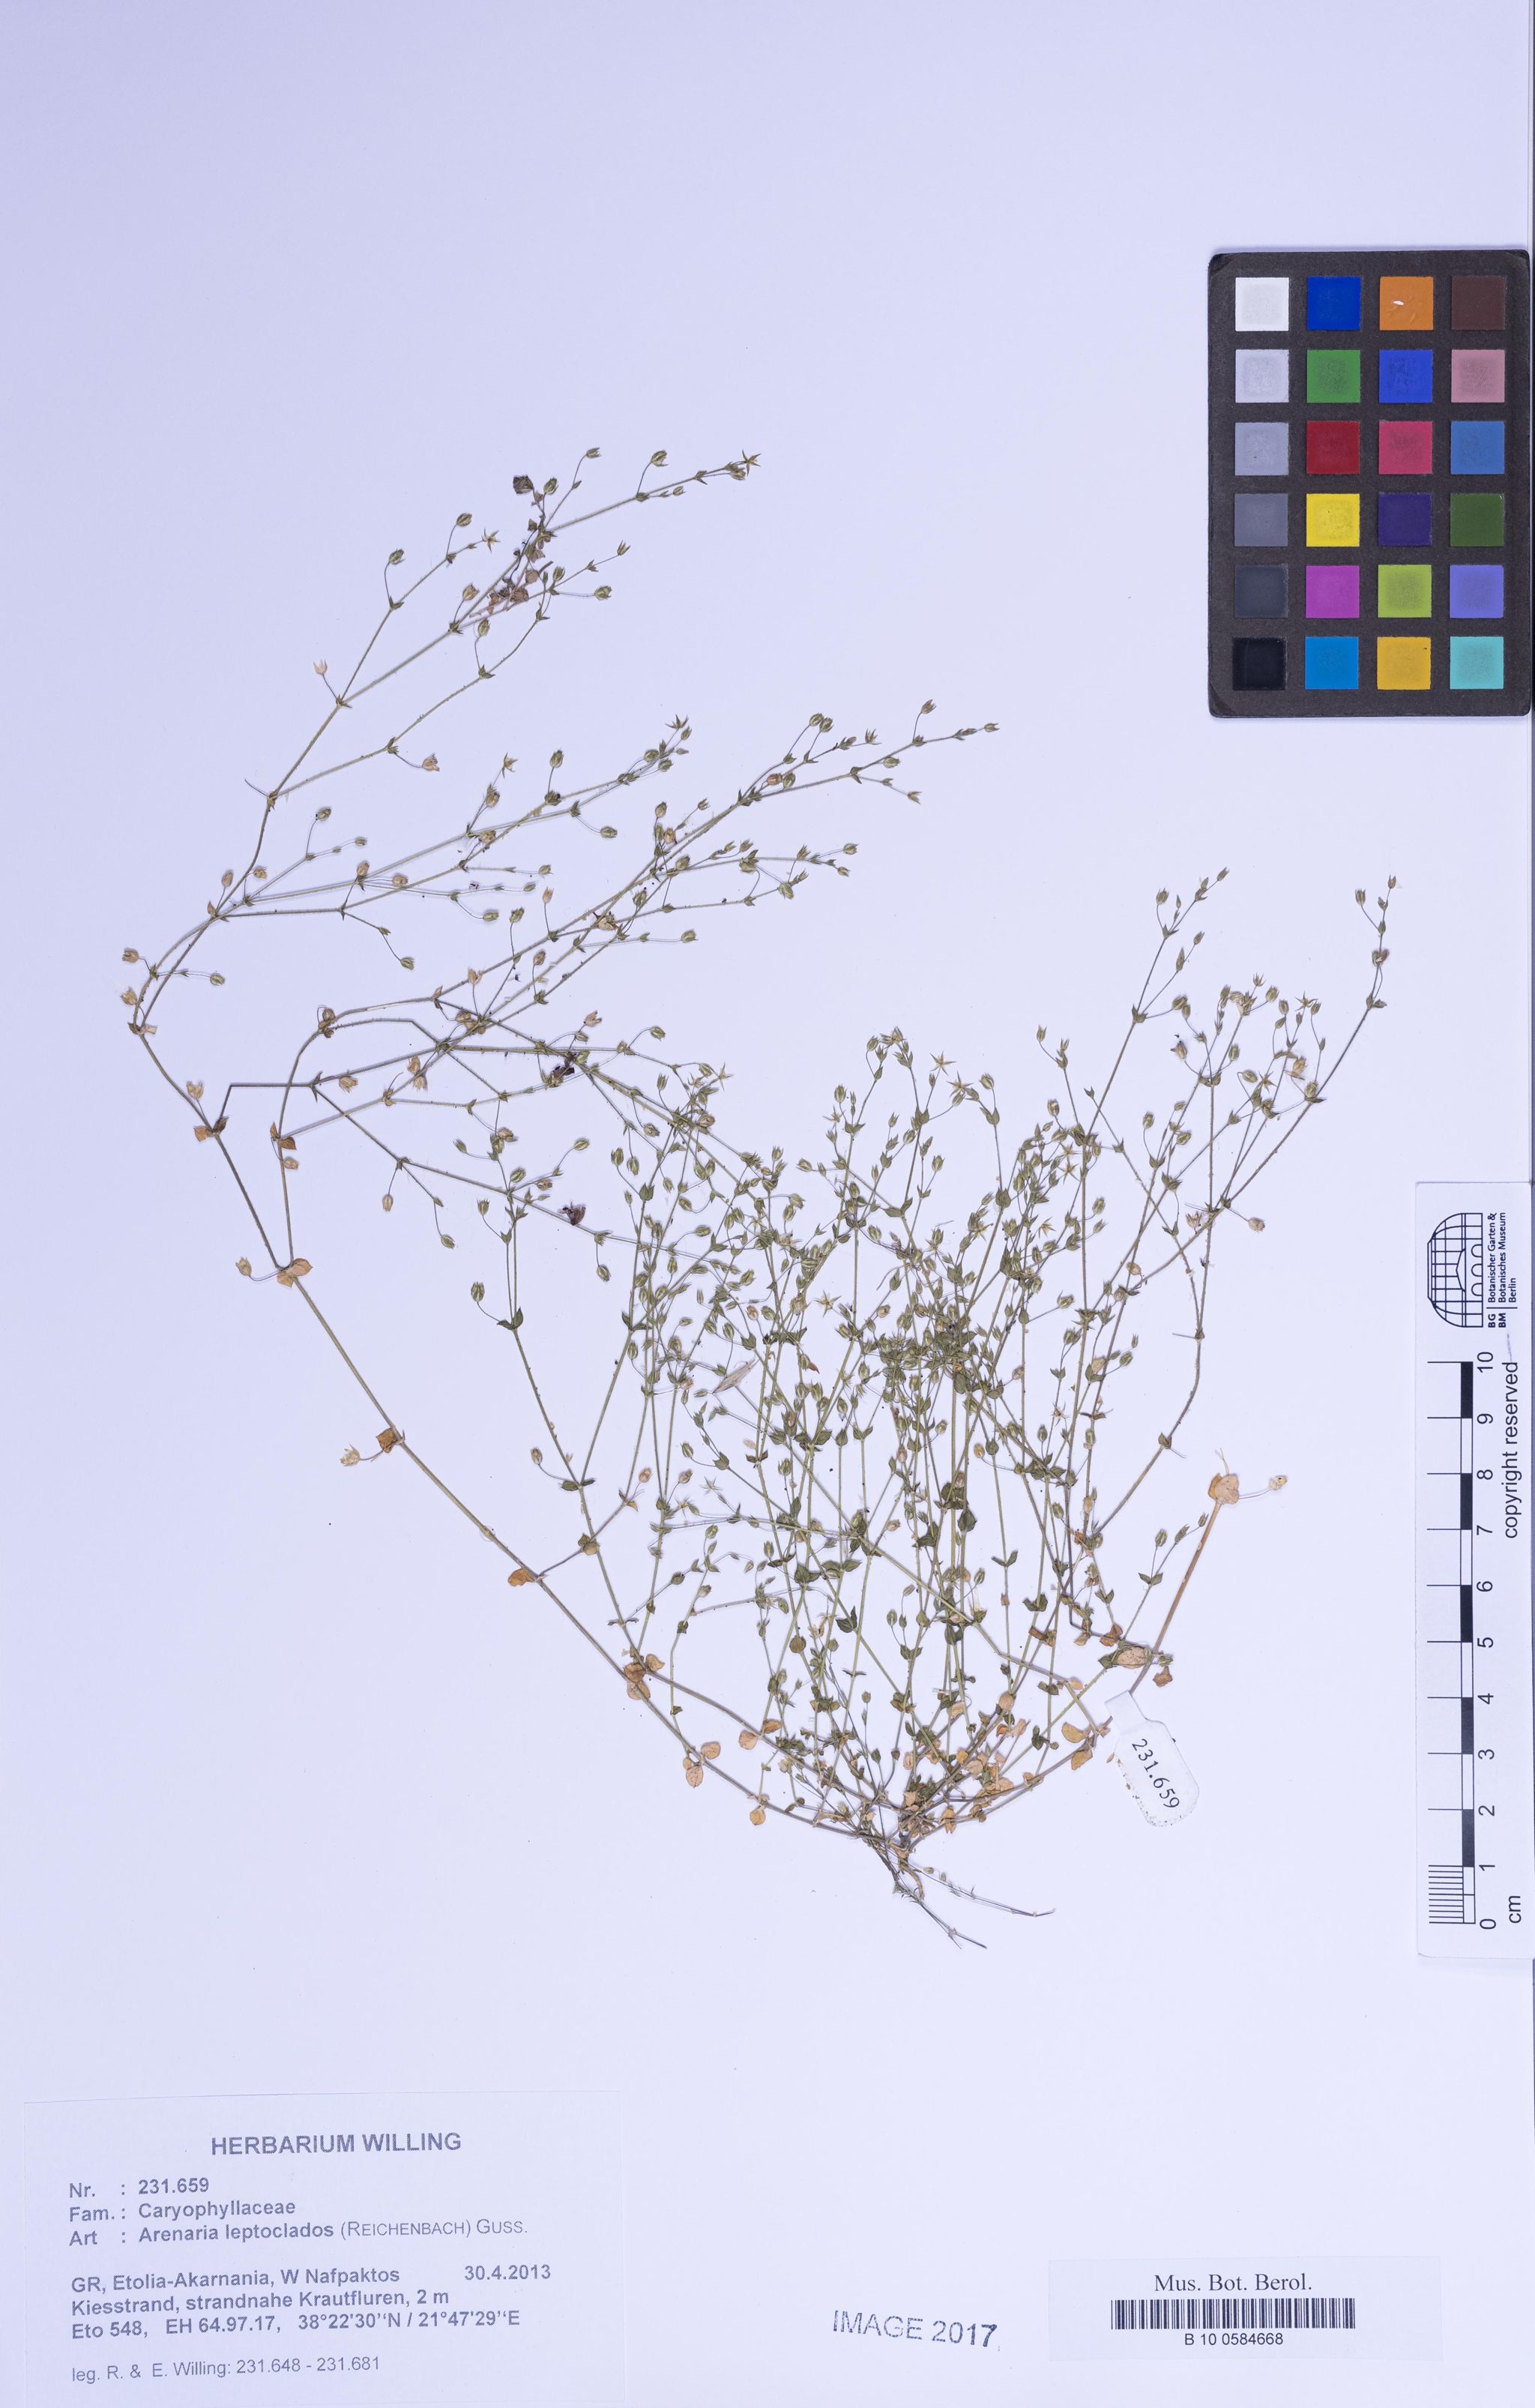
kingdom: Plantae
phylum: Tracheophyta
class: Magnoliopsida
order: Caryophyllales
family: Caryophyllaceae
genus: Arenaria
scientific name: Arenaria leptoclados
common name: Thyme-leaved sandwort
